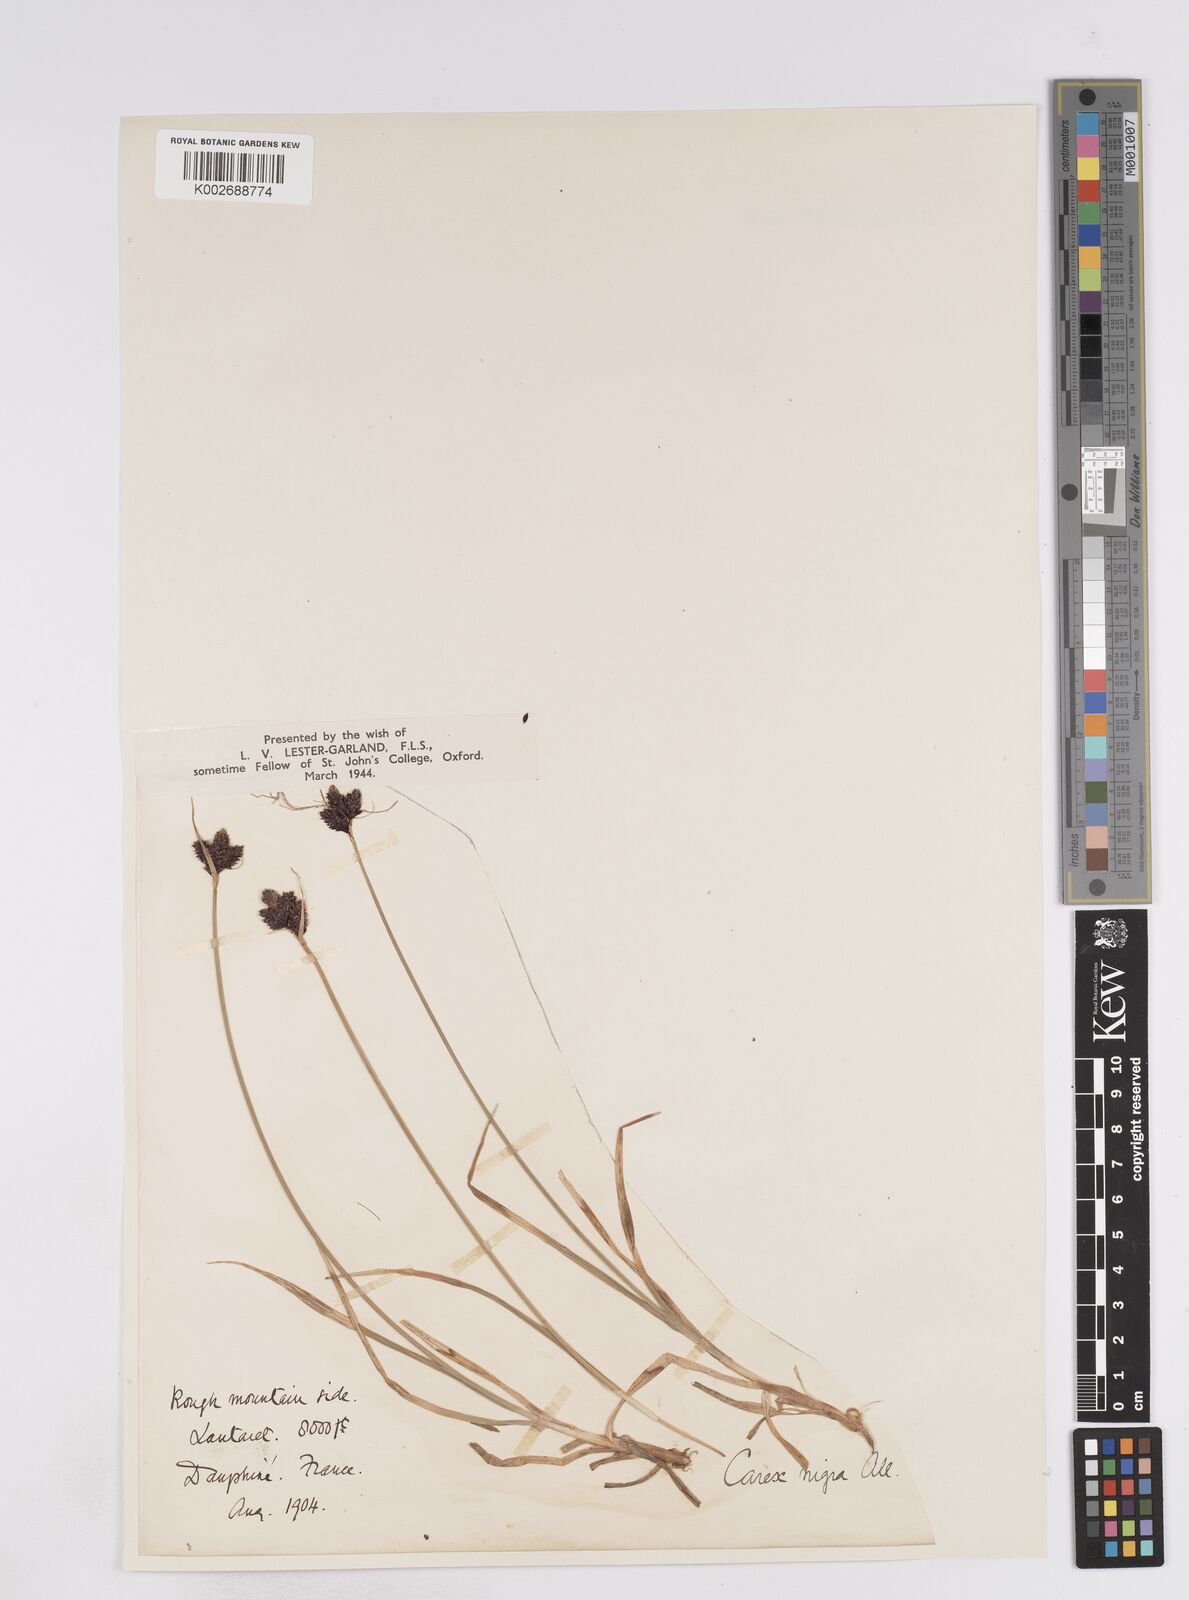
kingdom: Plantae
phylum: Tracheophyta
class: Liliopsida
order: Poales
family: Cyperaceae
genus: Carex
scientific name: Carex parviflora
